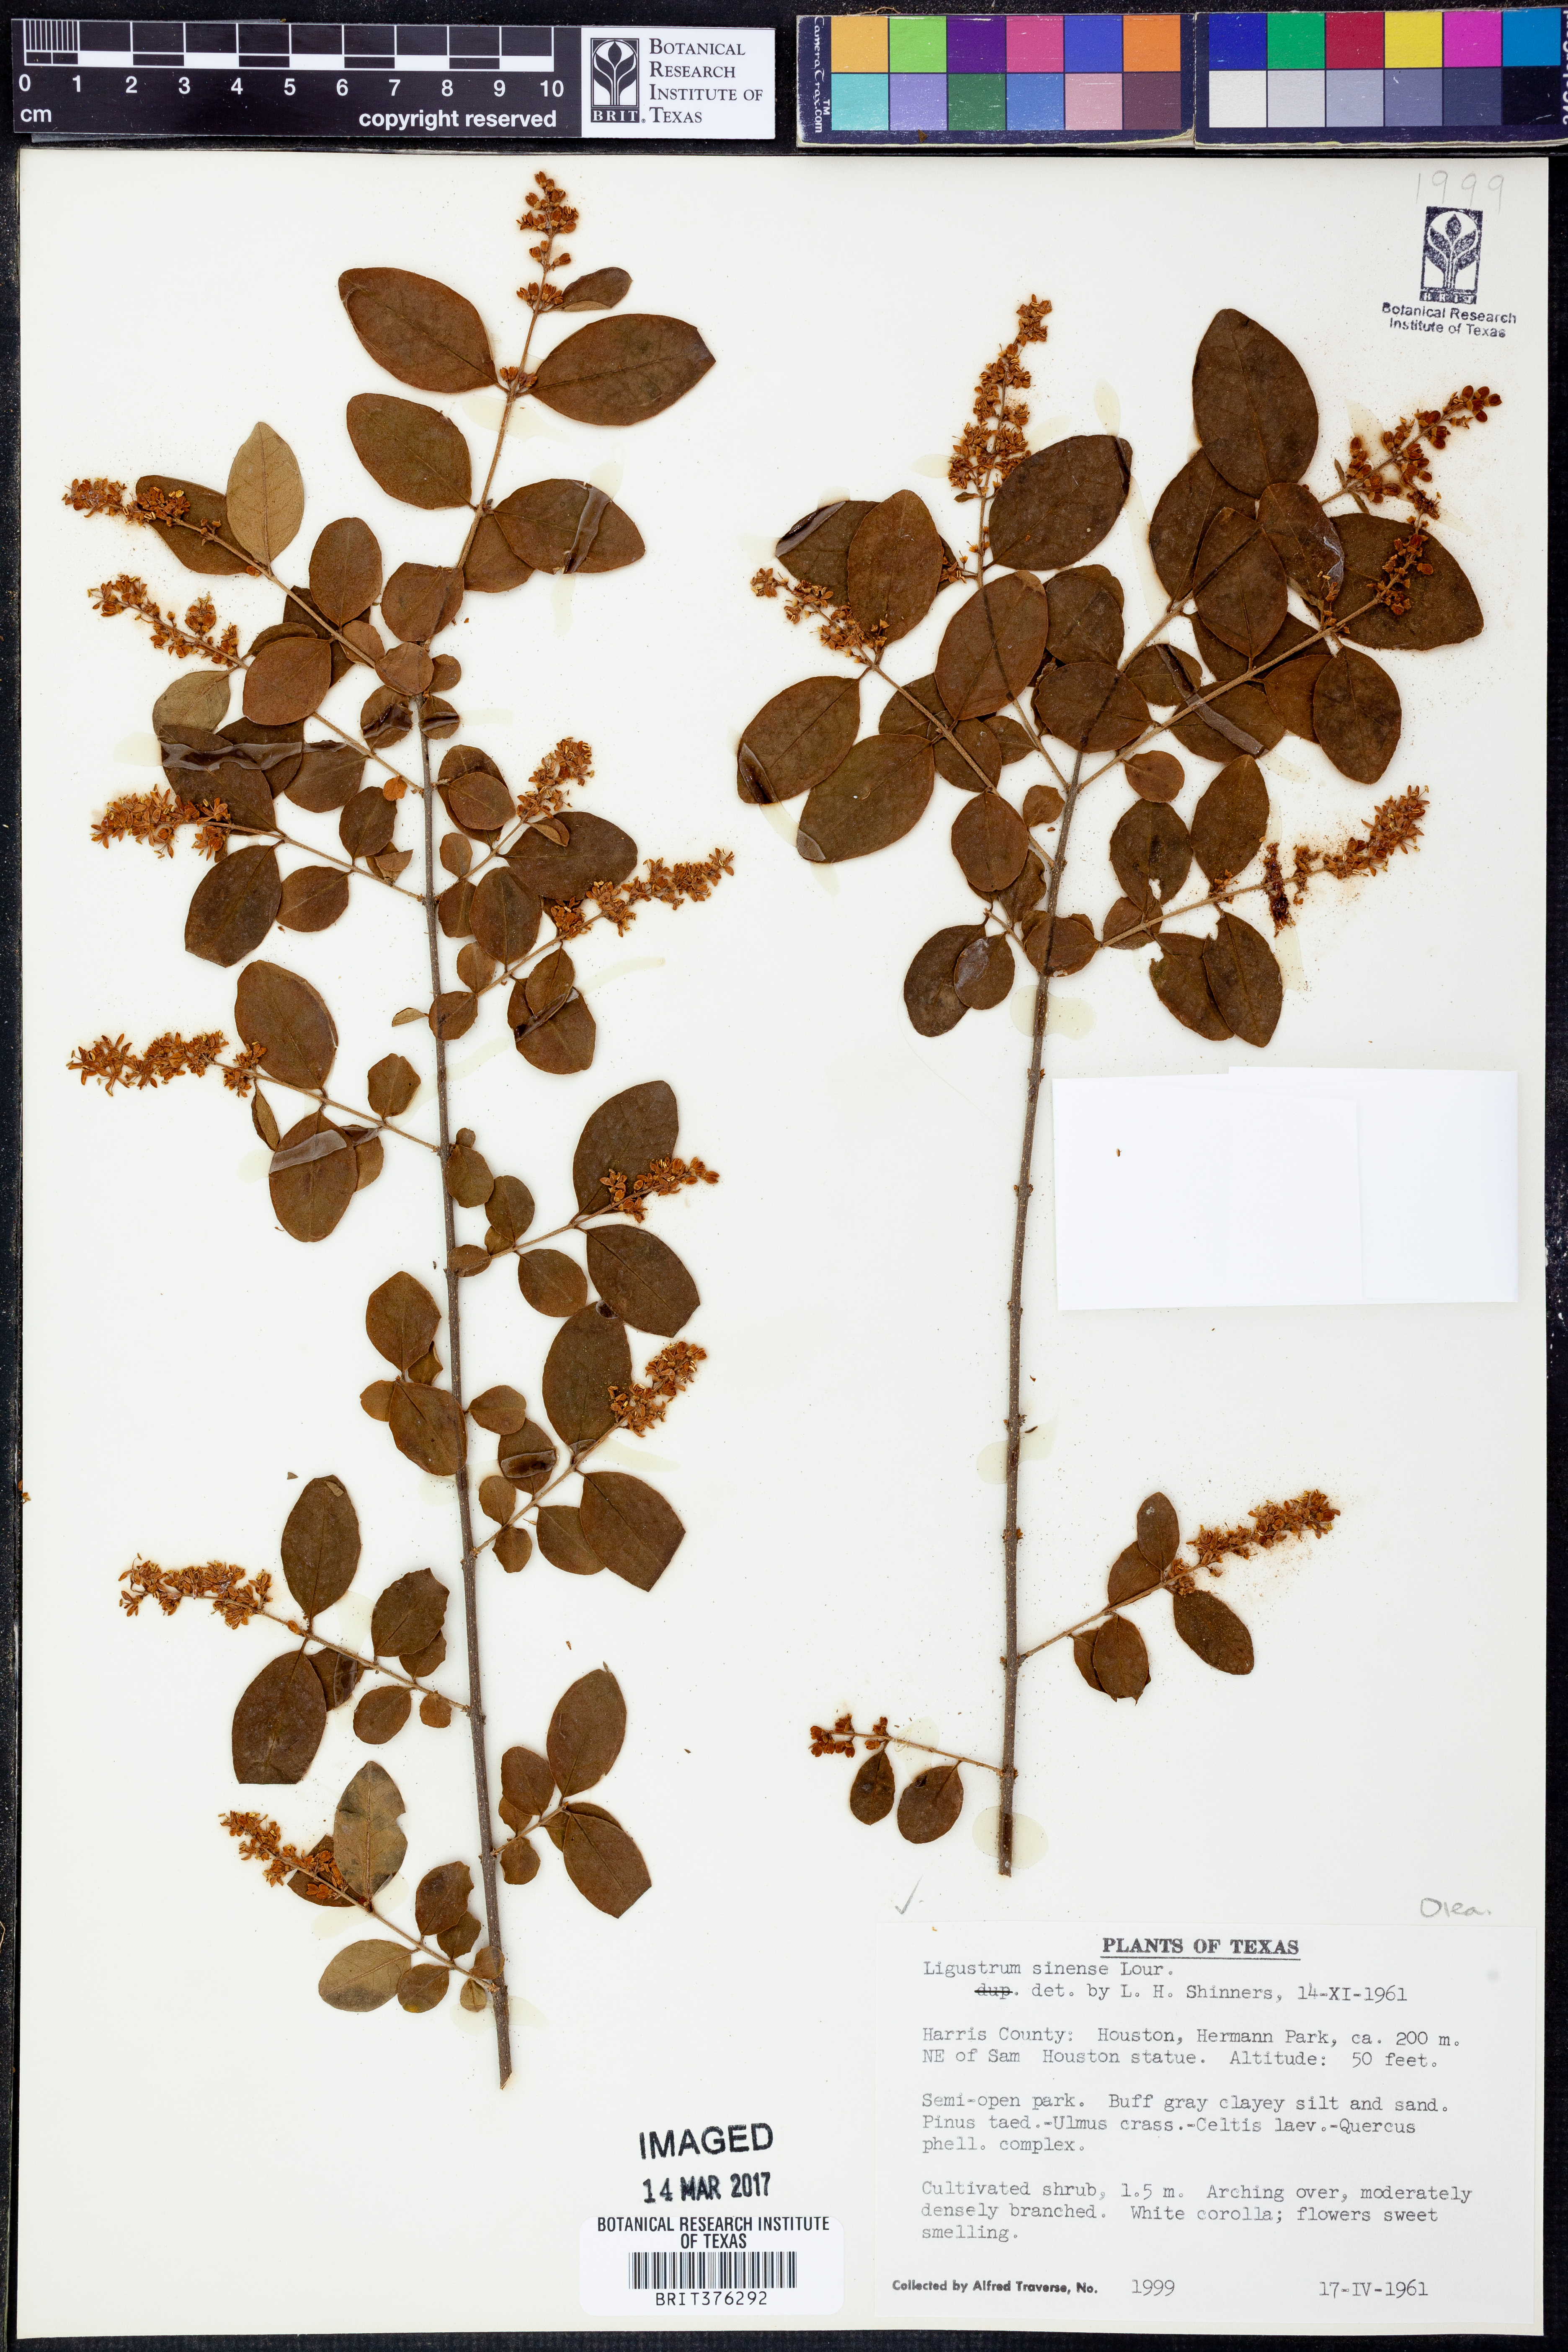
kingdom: Plantae
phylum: Tracheophyta
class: Magnoliopsida
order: Lamiales
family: Oleaceae
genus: Ligustrum
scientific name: Ligustrum sinense
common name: Chinese privet
